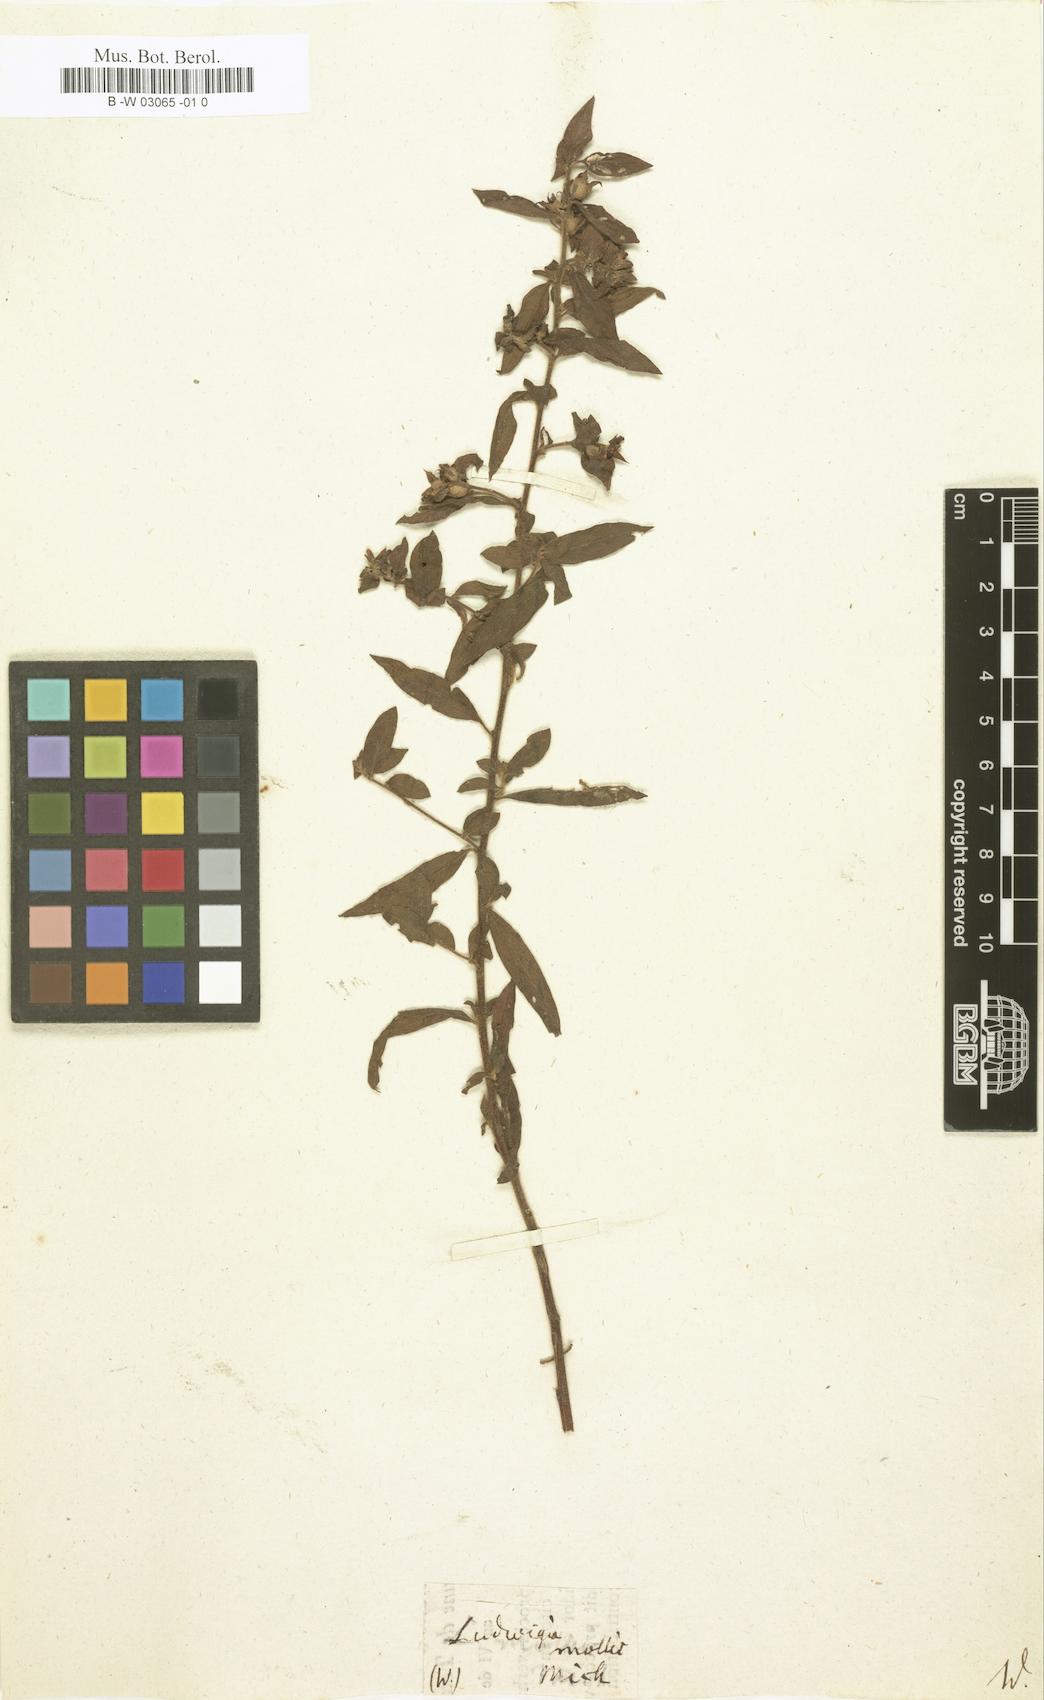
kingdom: Plantae
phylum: Tracheophyta
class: Magnoliopsida
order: Myrtales
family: Onagraceae
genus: Ludwigia
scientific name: Ludwigia pilosa
